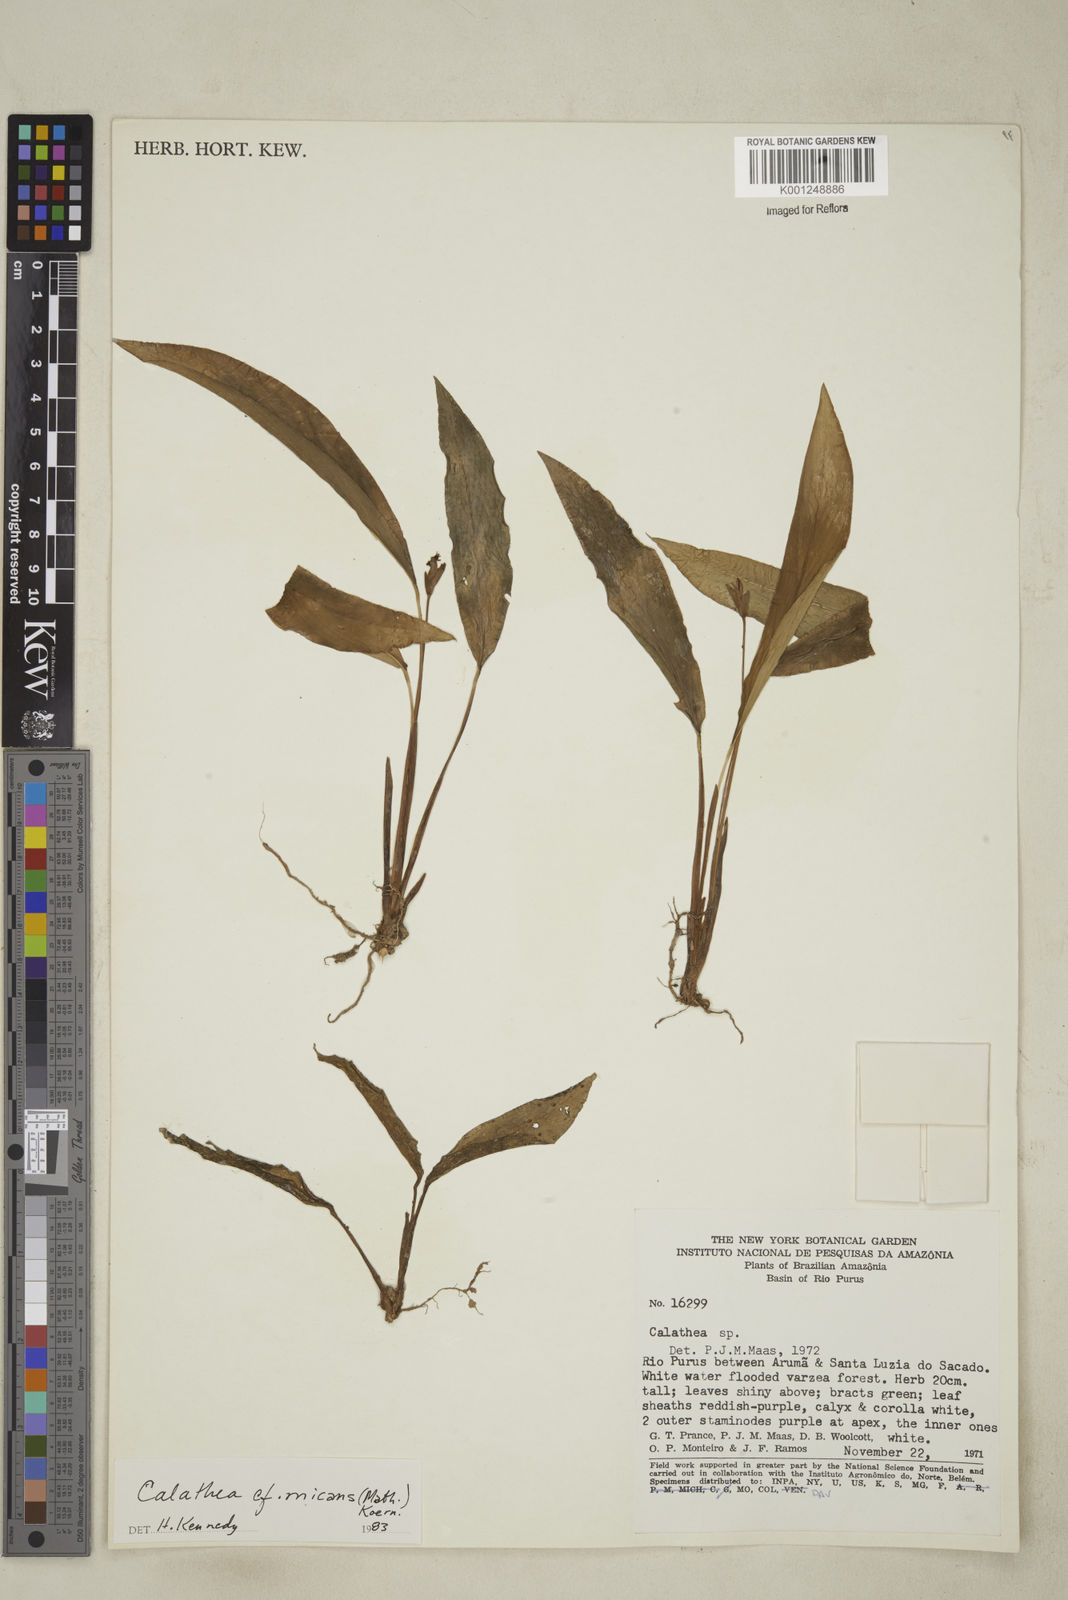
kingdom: Plantae
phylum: Tracheophyta
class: Liliopsida
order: Zingiberales
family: Marantaceae
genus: Goeppertia
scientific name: Goeppertia micans
